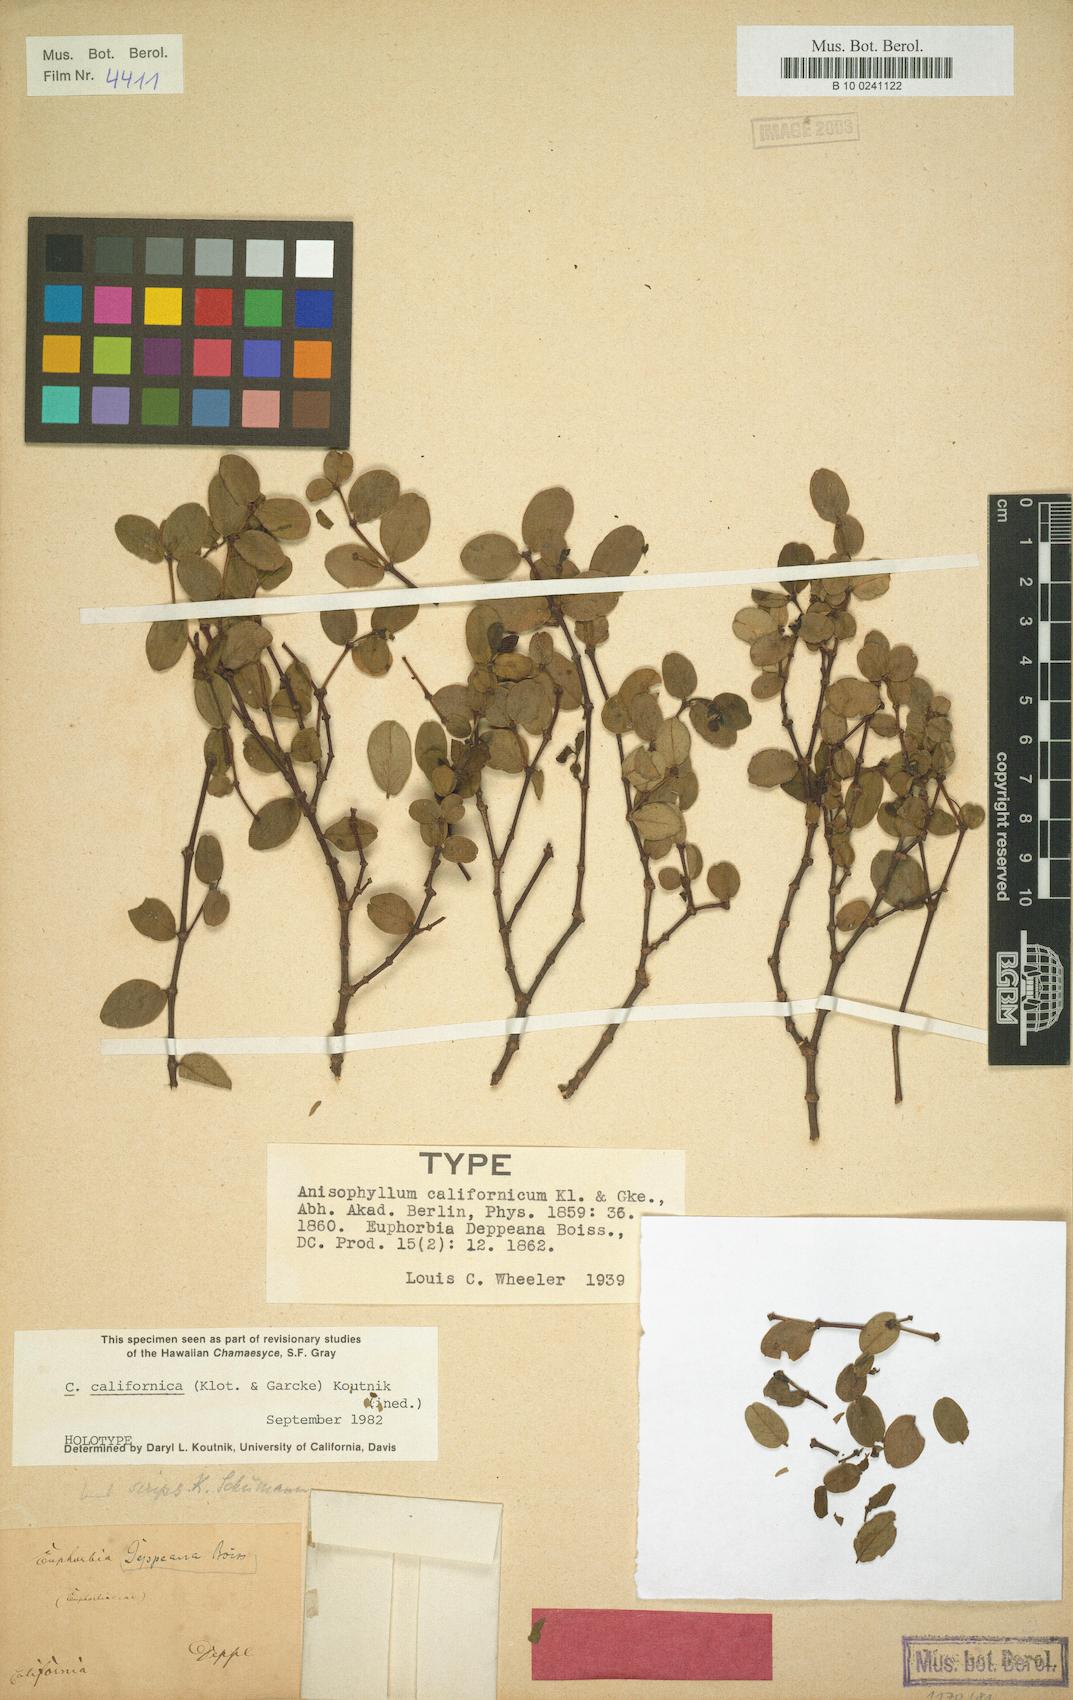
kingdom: Plantae
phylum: Tracheophyta
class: Magnoliopsida
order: Malpighiales
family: Euphorbiaceae
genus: Chamaesyce
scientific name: Chamaesyce
